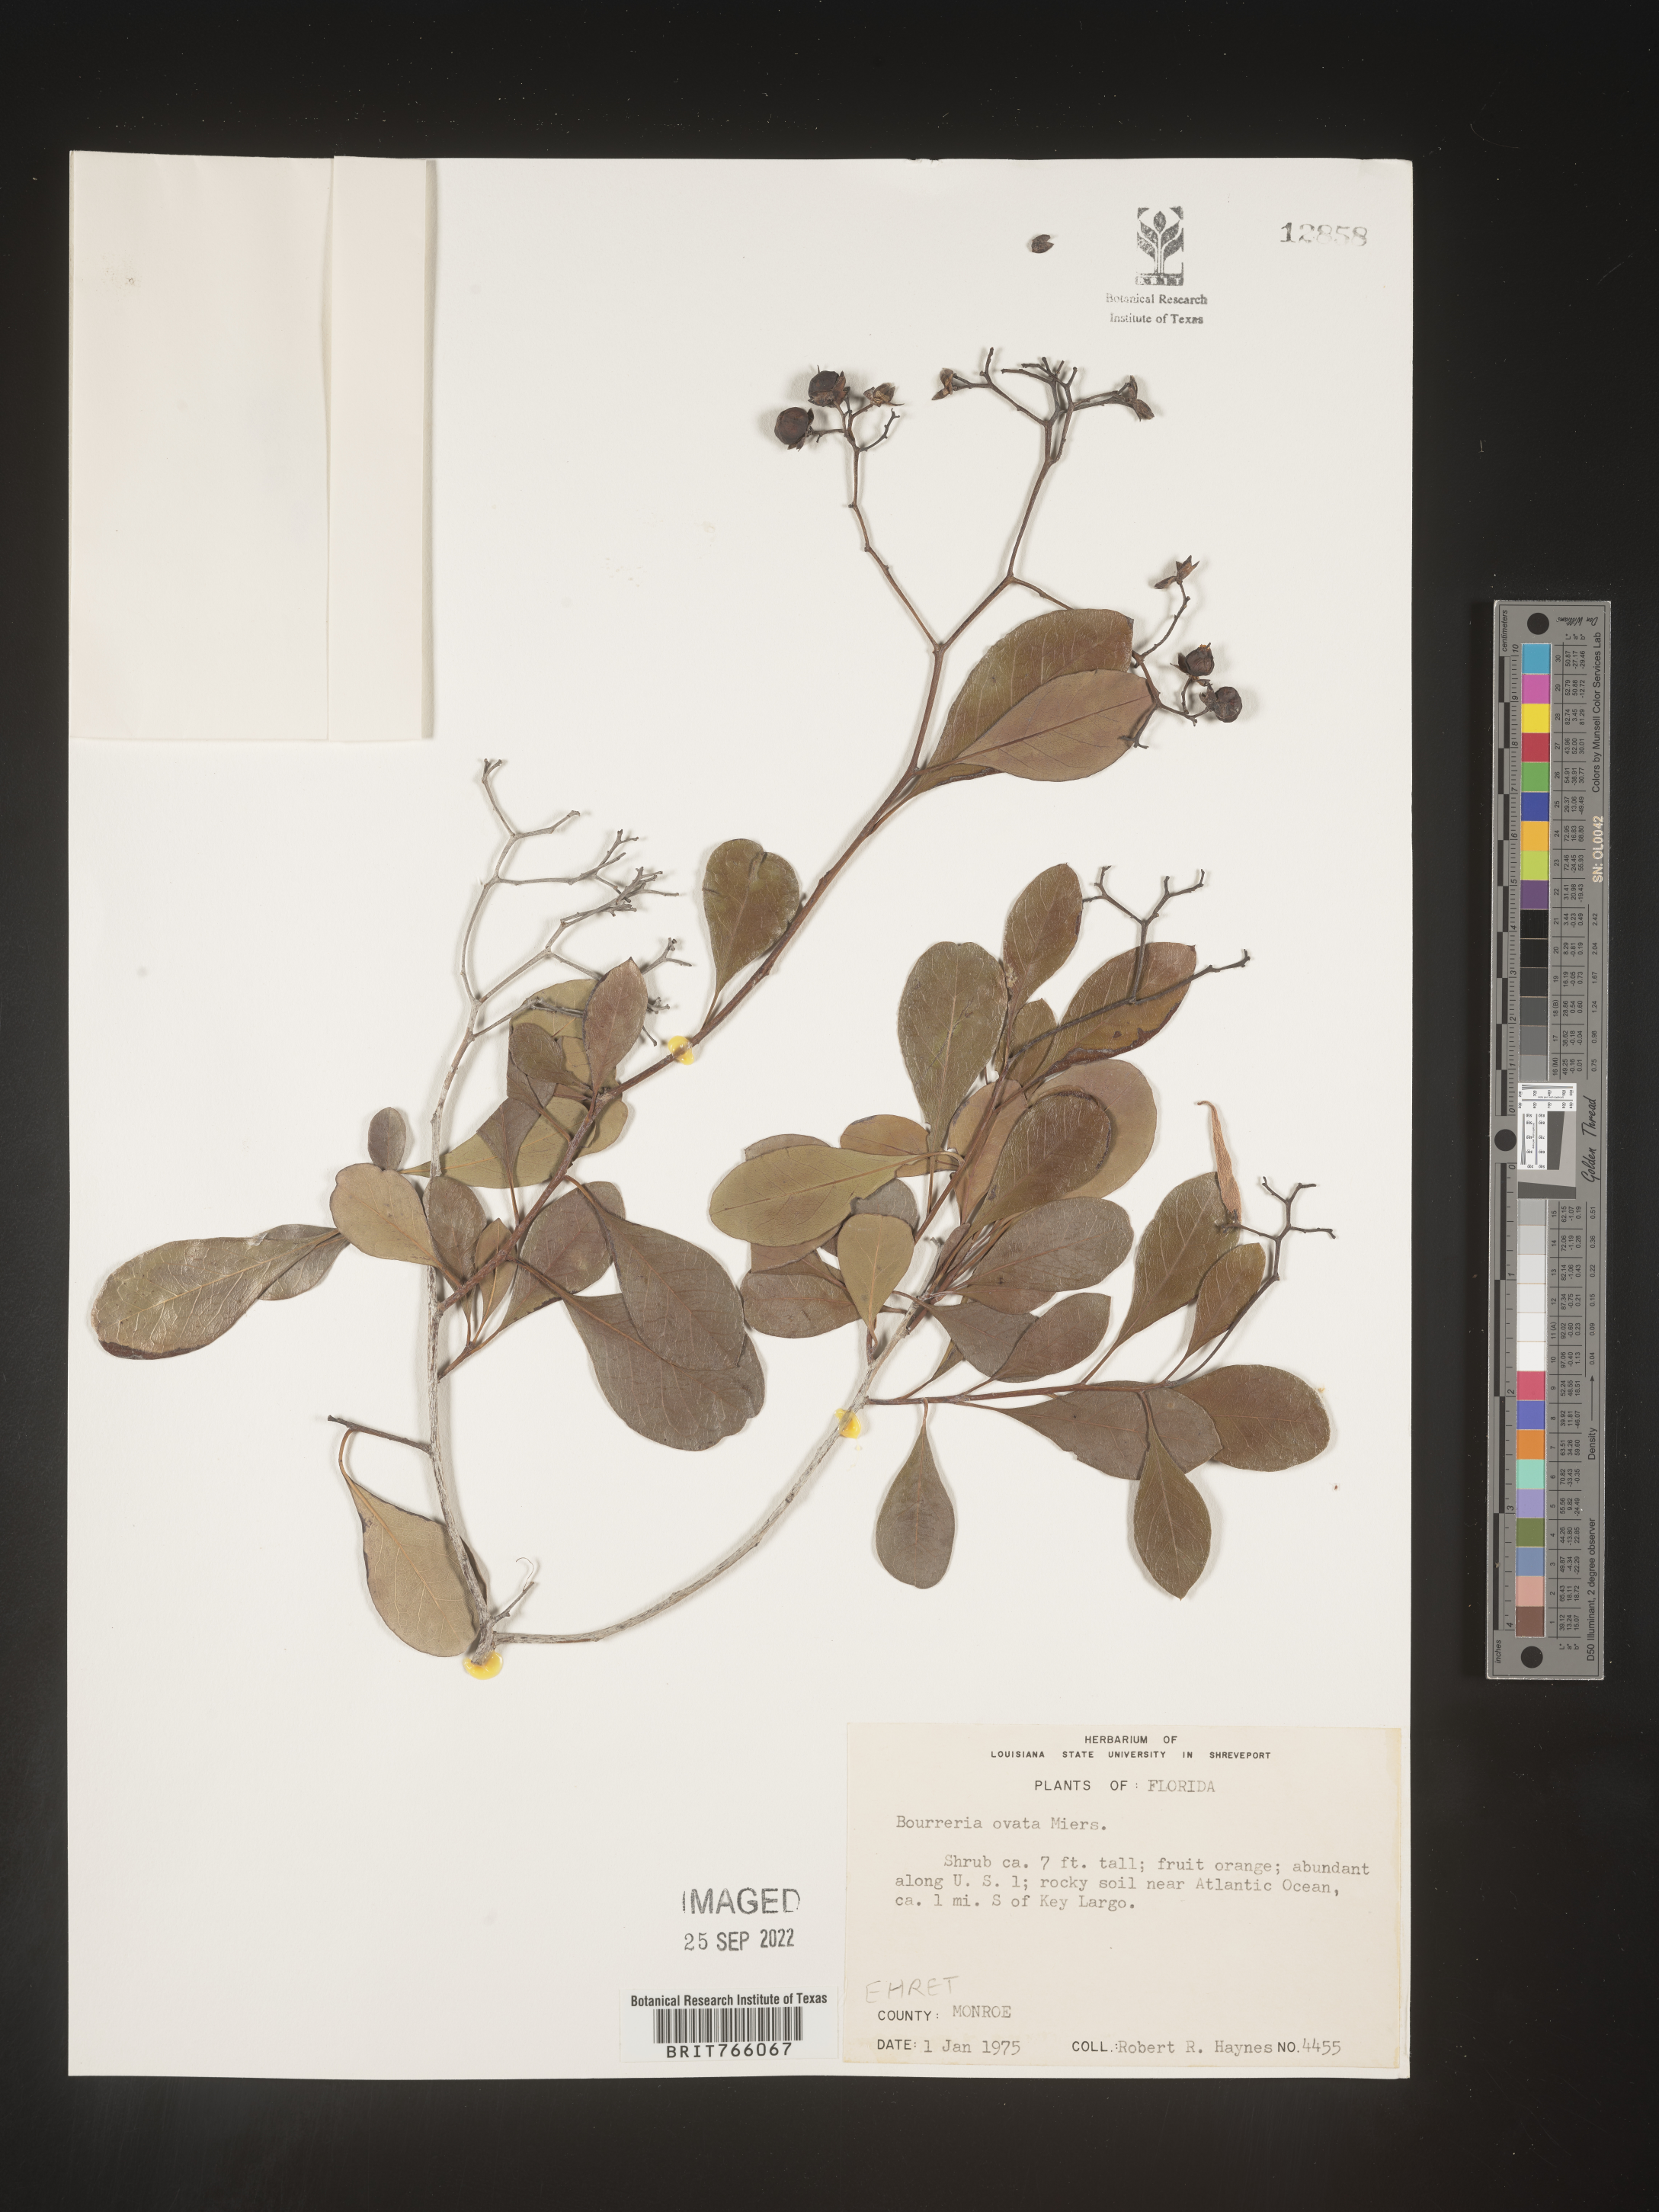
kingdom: Plantae
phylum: Tracheophyta
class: Magnoliopsida
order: Boraginales
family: Ehretiaceae
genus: Bourreria
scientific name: Bourreria
